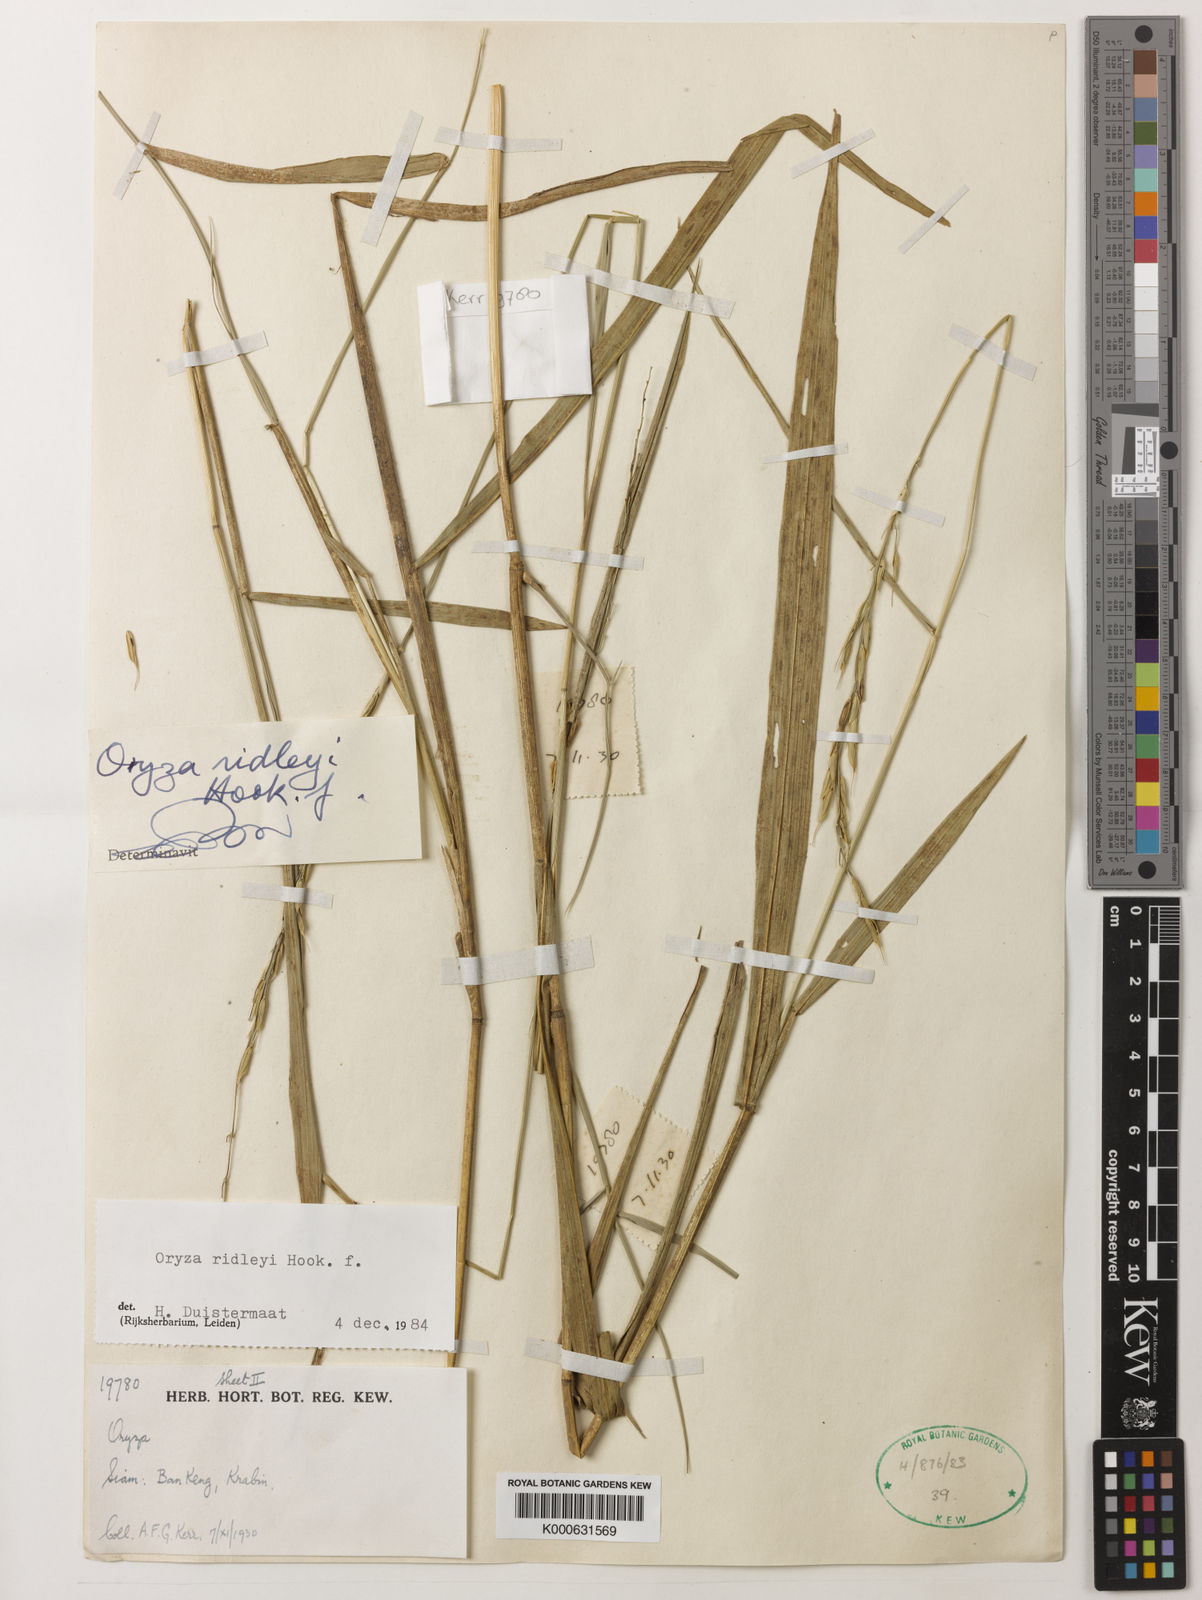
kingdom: Plantae
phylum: Tracheophyta
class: Liliopsida
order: Poales
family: Poaceae
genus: Oryza
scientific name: Oryza ridleyi
